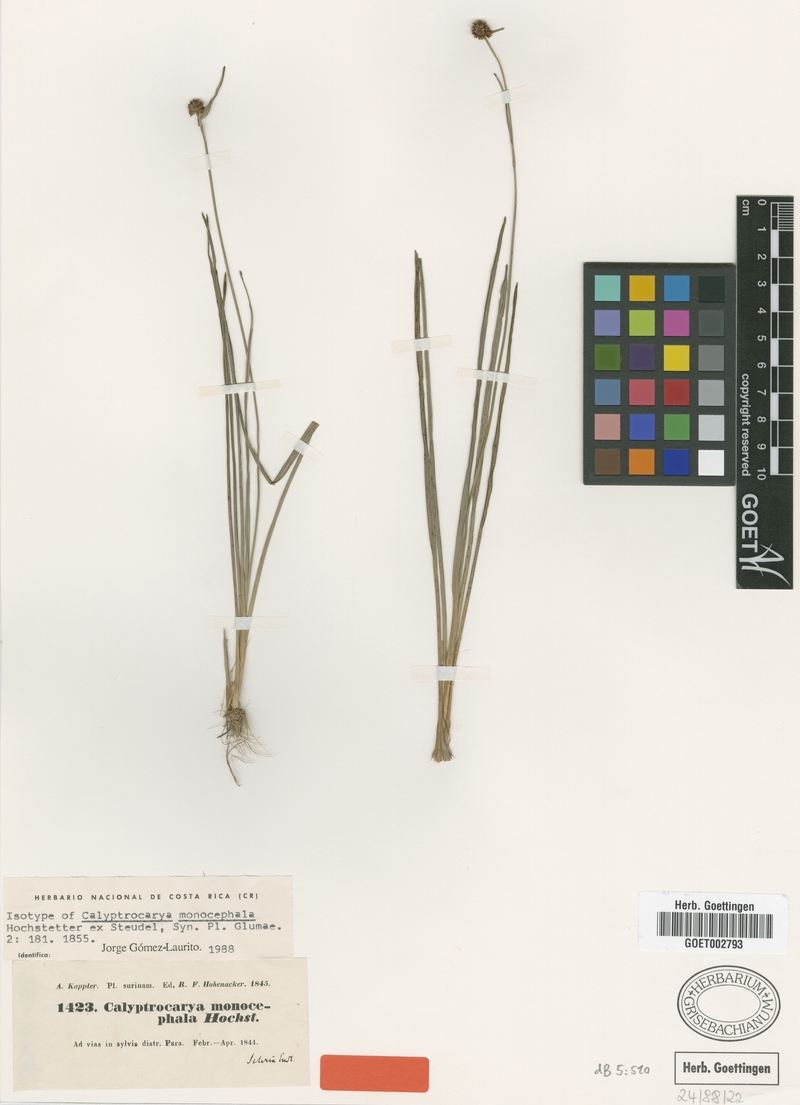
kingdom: Plantae
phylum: Tracheophyta
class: Liliopsida
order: Poales
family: Cyperaceae
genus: Calyptrocarya
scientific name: Calyptrocarya monocephala
